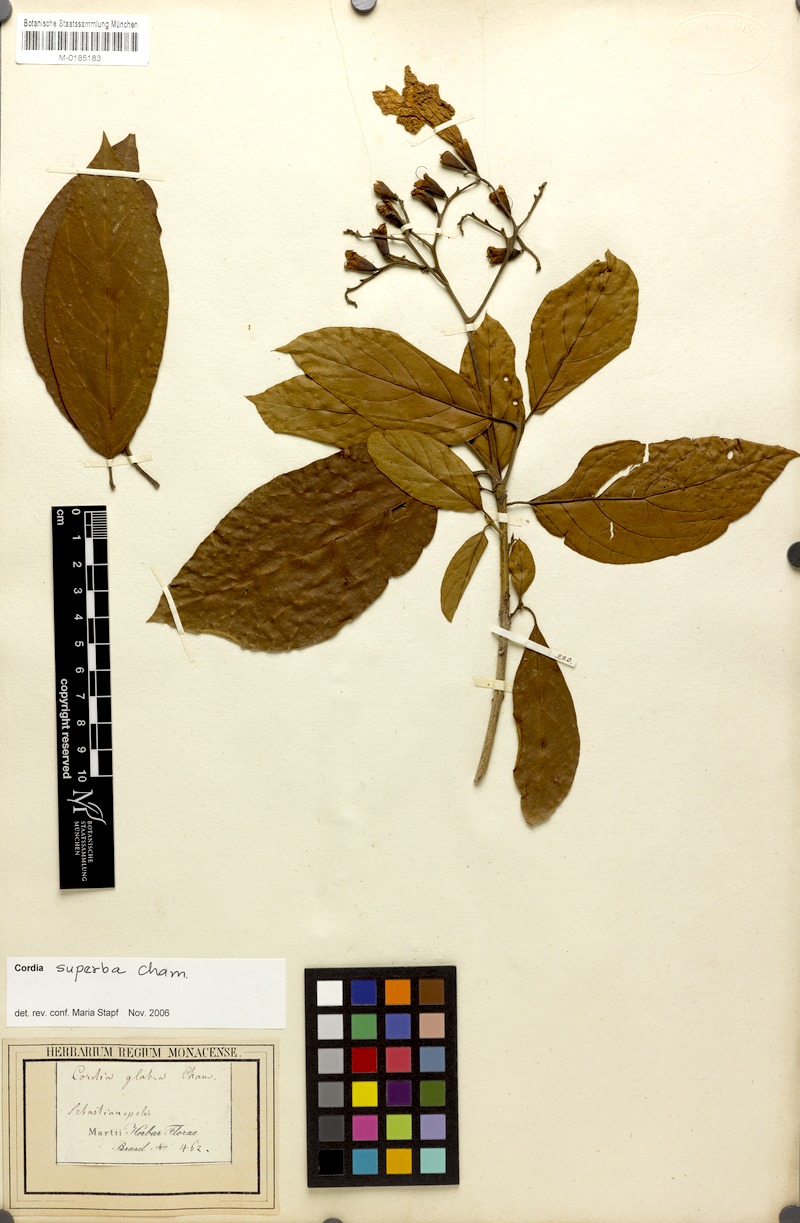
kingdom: Plantae
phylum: Tracheophyta
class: Magnoliopsida
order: Boraginales
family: Cordiaceae
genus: Cordia
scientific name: Cordia superba
